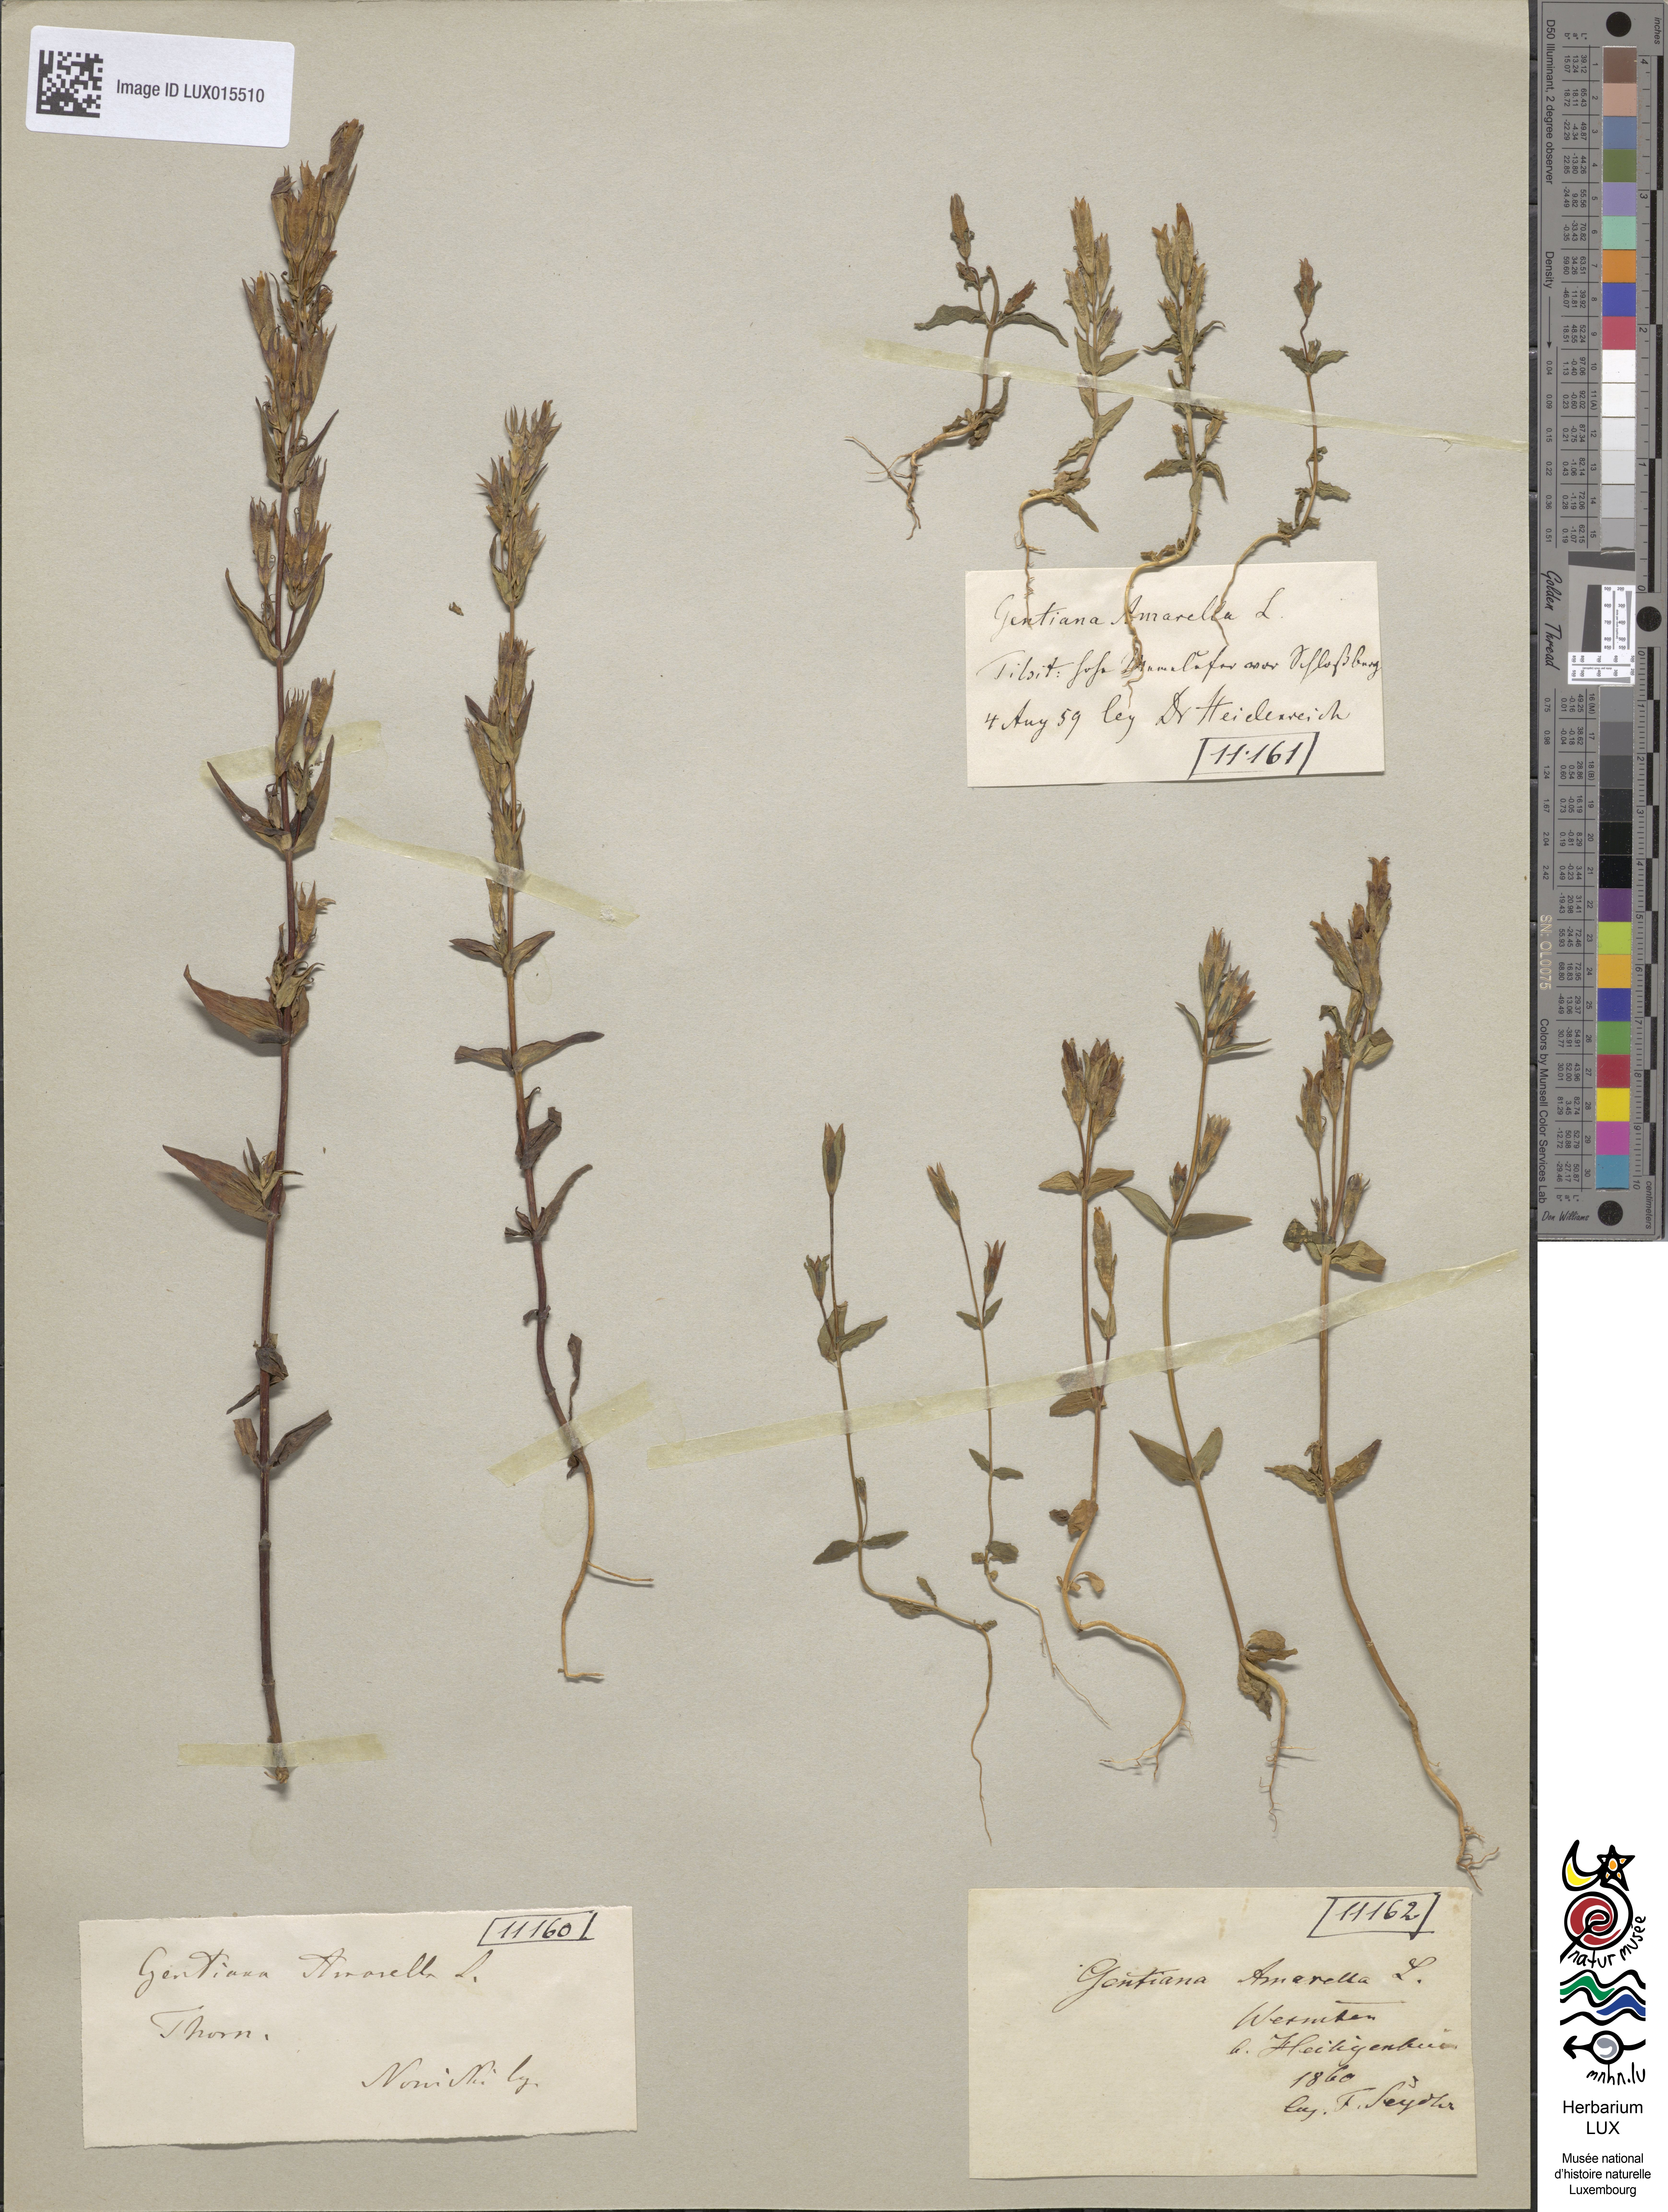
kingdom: Plantae
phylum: Tracheophyta
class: Magnoliopsida
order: Gentianales
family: Gentianaceae
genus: Gentianella
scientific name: Gentianella amarella
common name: Autumn gentian
